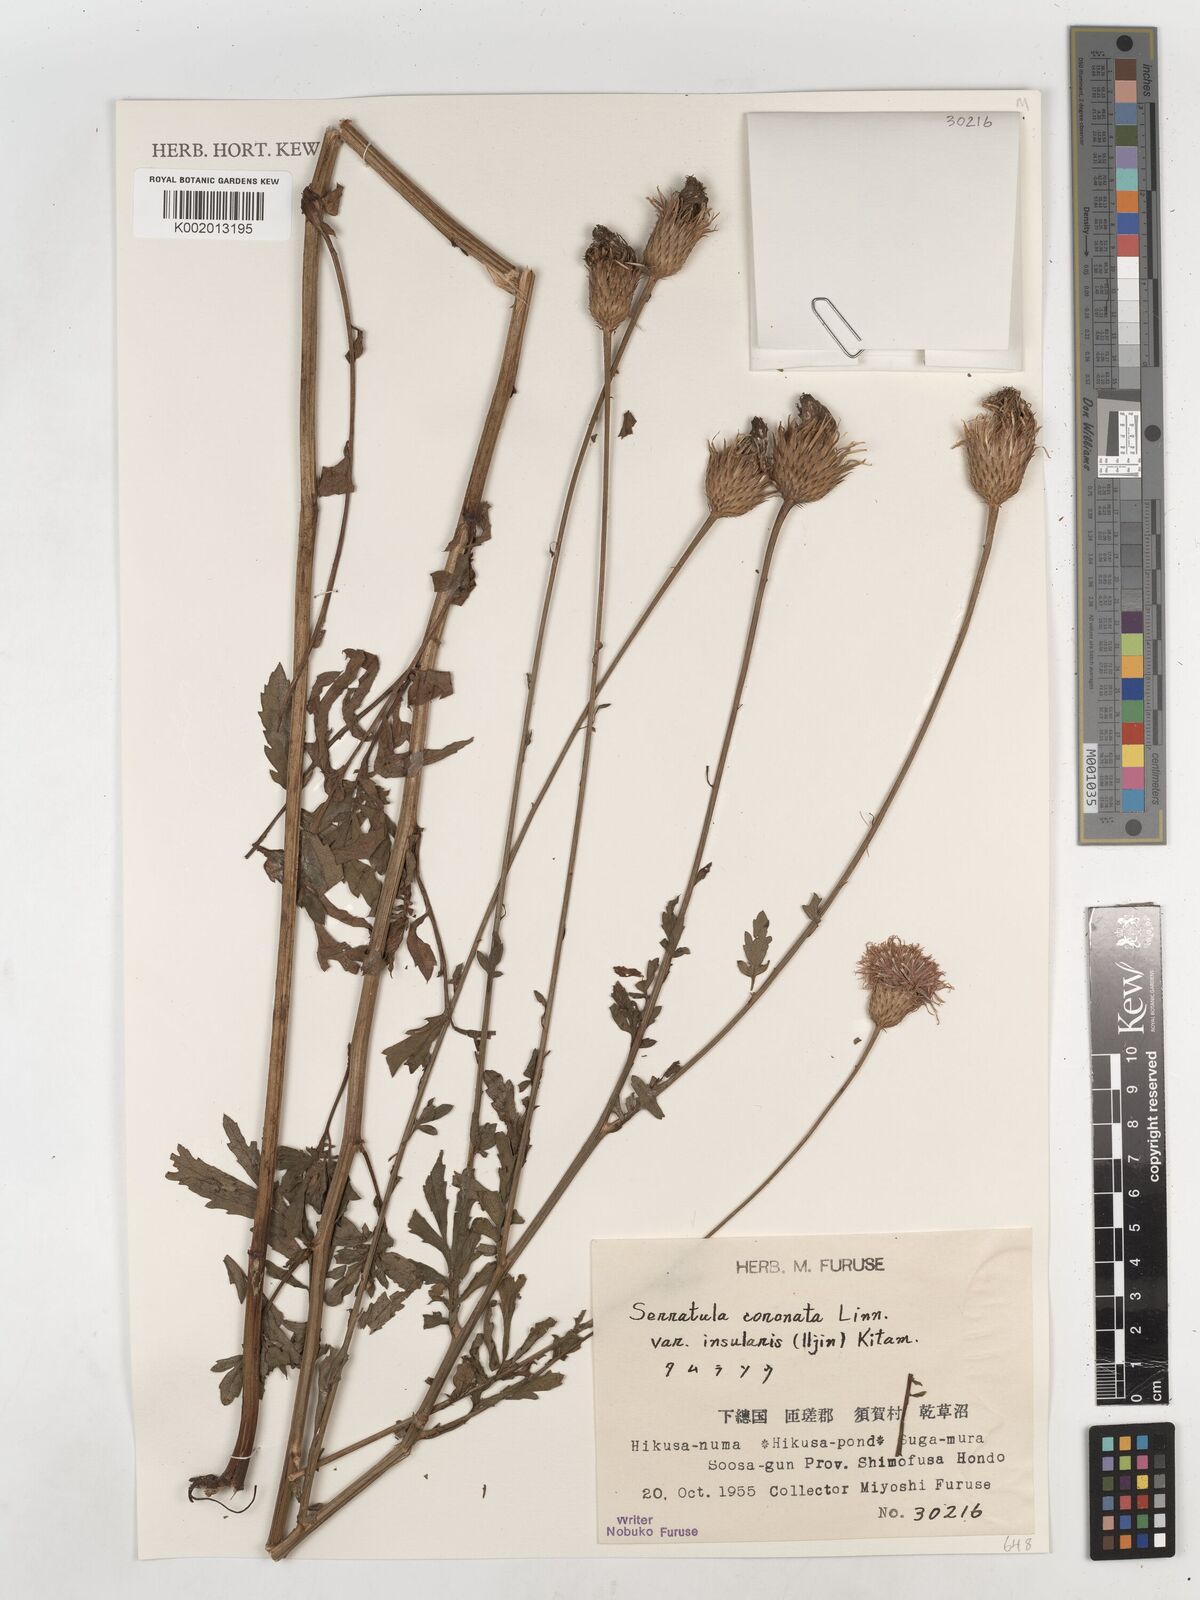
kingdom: Plantae
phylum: Tracheophyta
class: Magnoliopsida
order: Asterales
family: Asteraceae
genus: Serratula
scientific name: Serratula coronata
